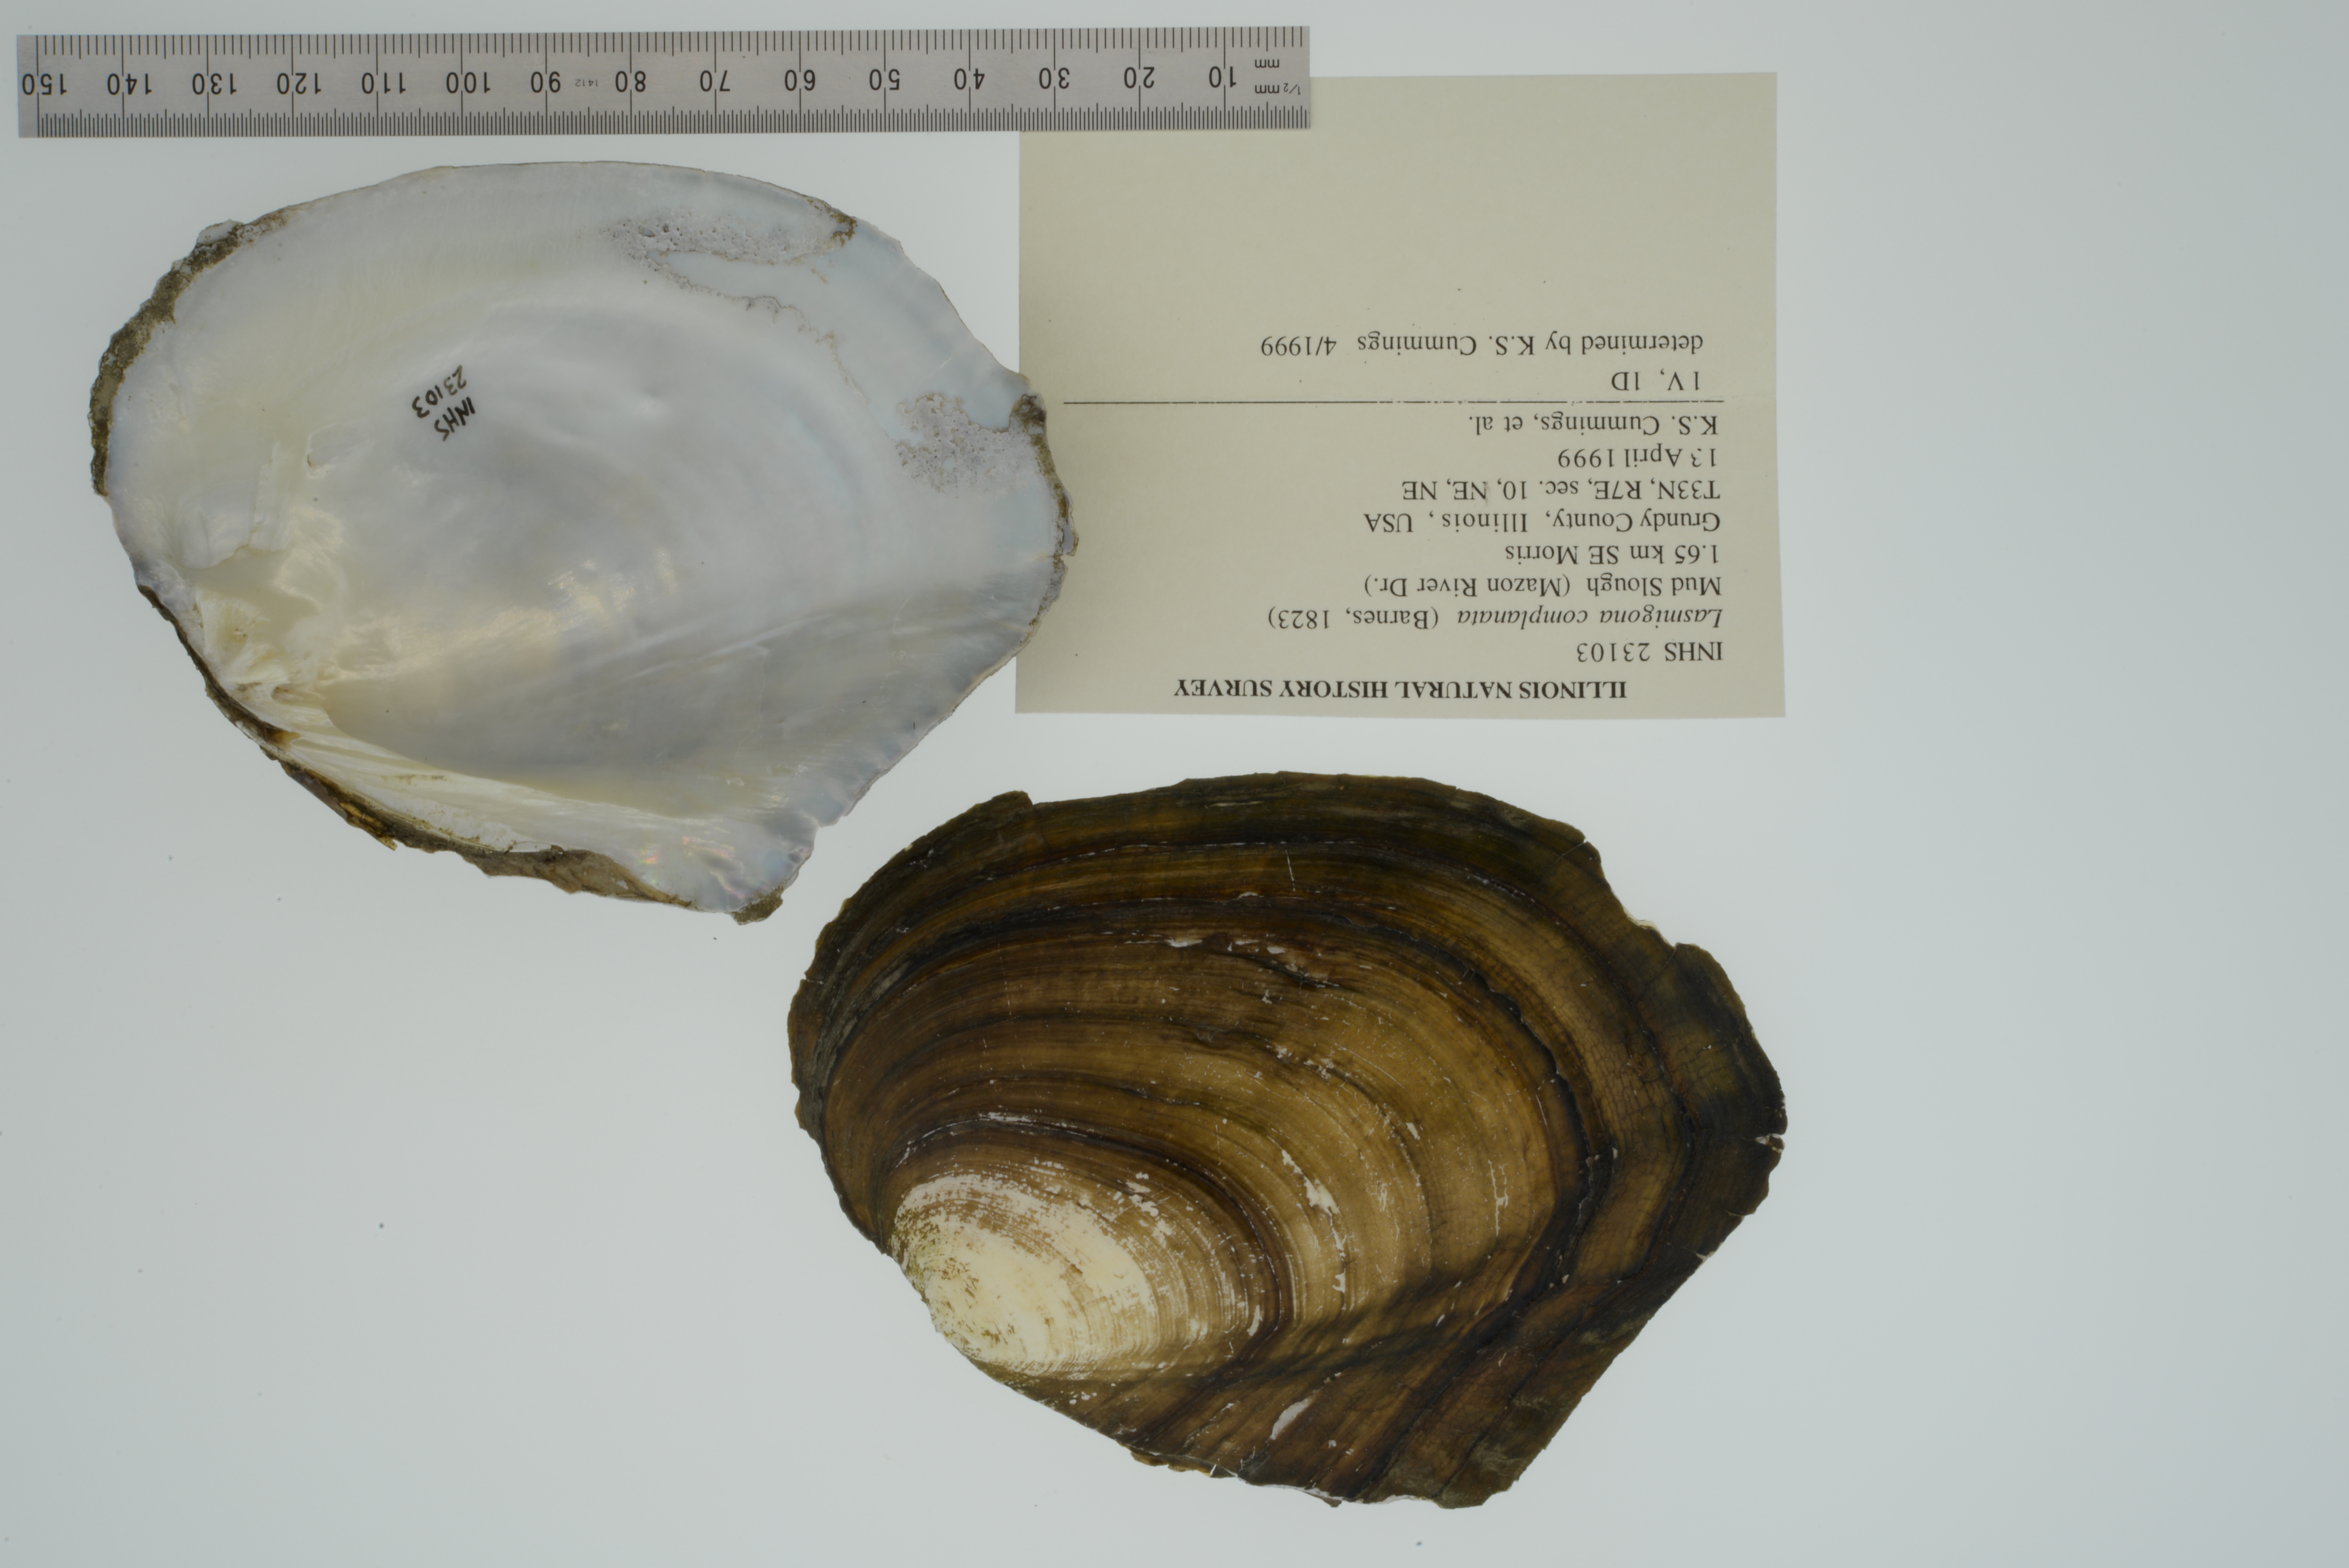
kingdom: Animalia
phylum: Mollusca
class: Bivalvia
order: Unionida
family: Unionidae
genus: Lasmigona
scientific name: Lasmigona complanata
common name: White heelsplitter
